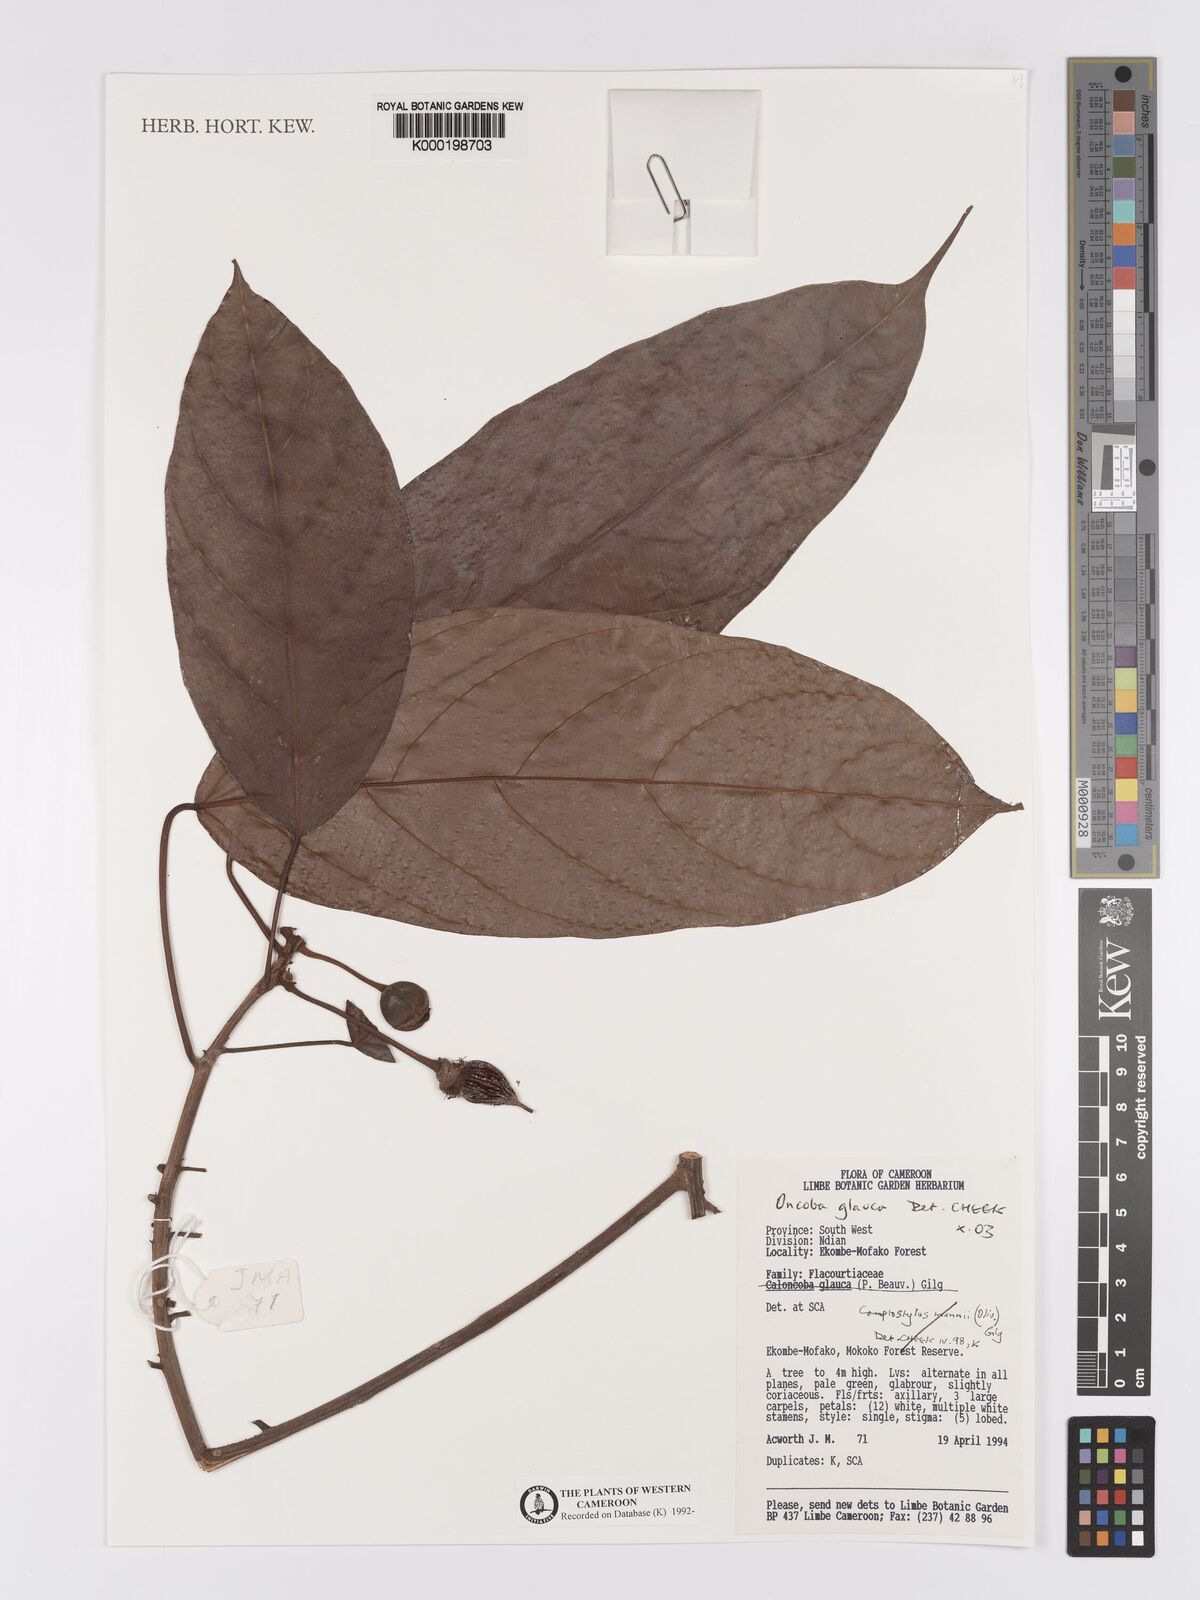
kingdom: Plantae
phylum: Tracheophyta
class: Magnoliopsida
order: Malpighiales
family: Achariaceae
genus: Camptostylus
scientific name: Camptostylus mannii
